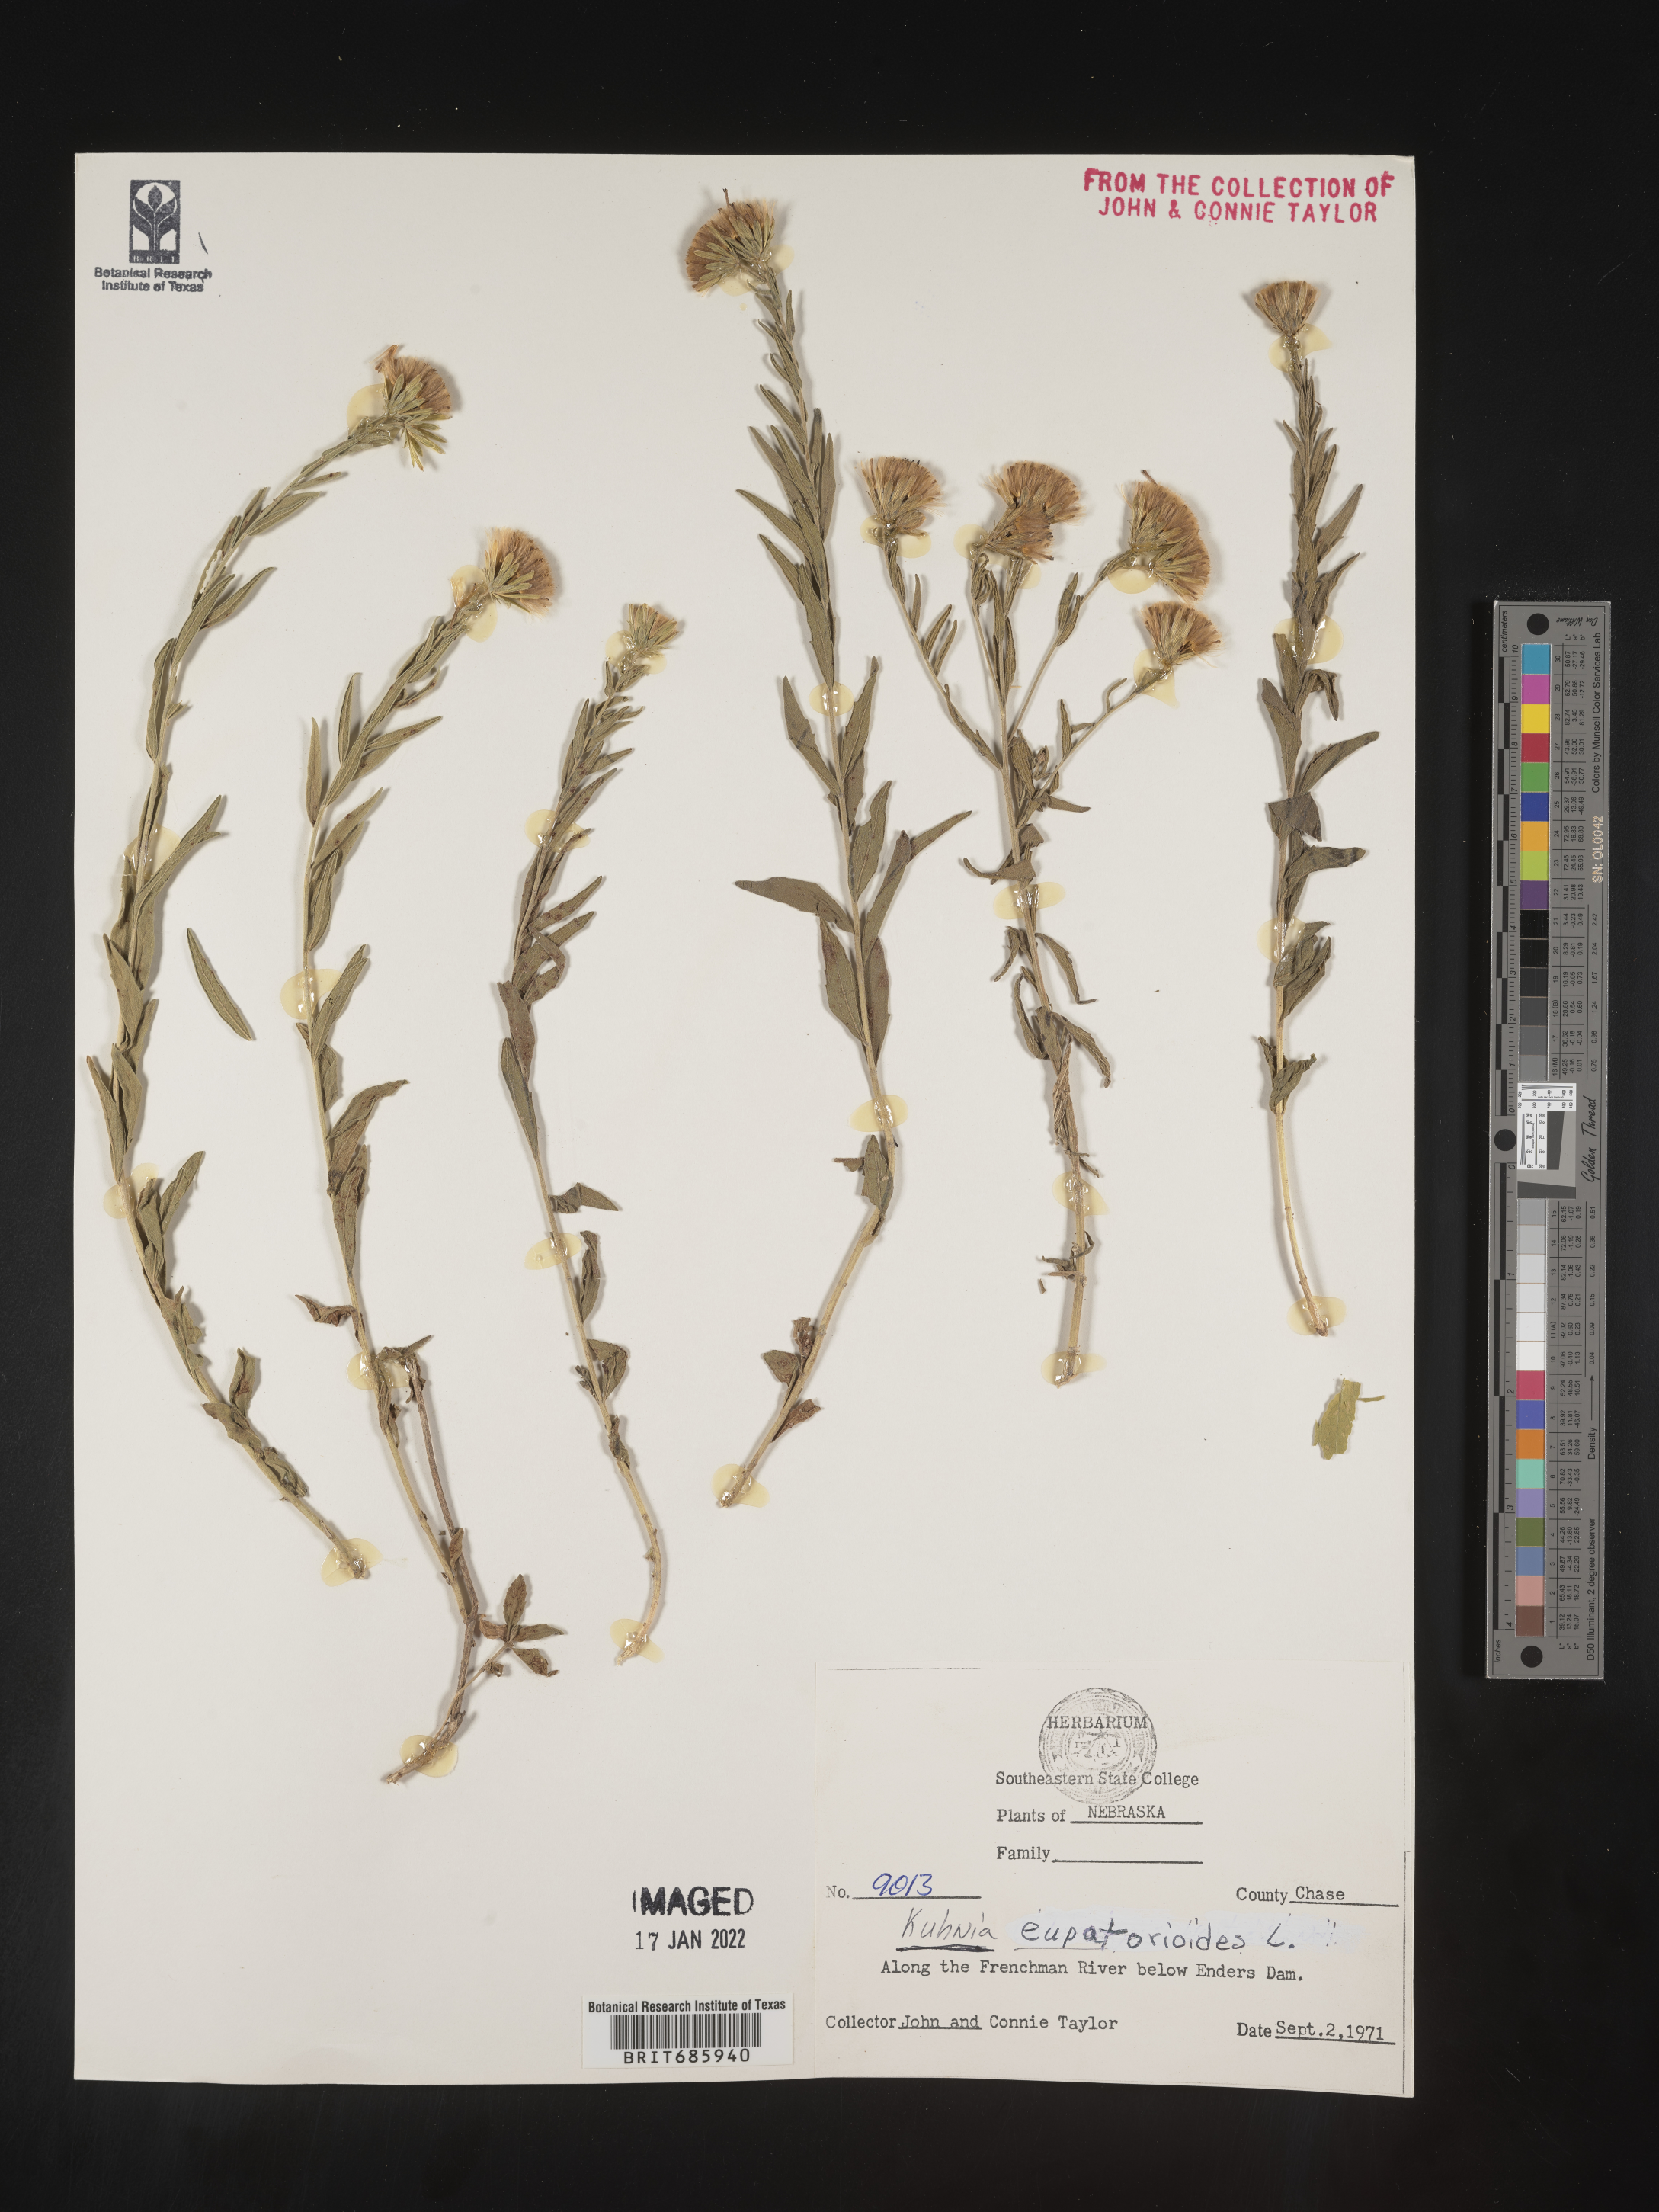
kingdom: Plantae
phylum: Tracheophyta
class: Magnoliopsida
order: Asterales
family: Asteraceae
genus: Brickellia
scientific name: Brickellia eupatorioides
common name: False boneset
